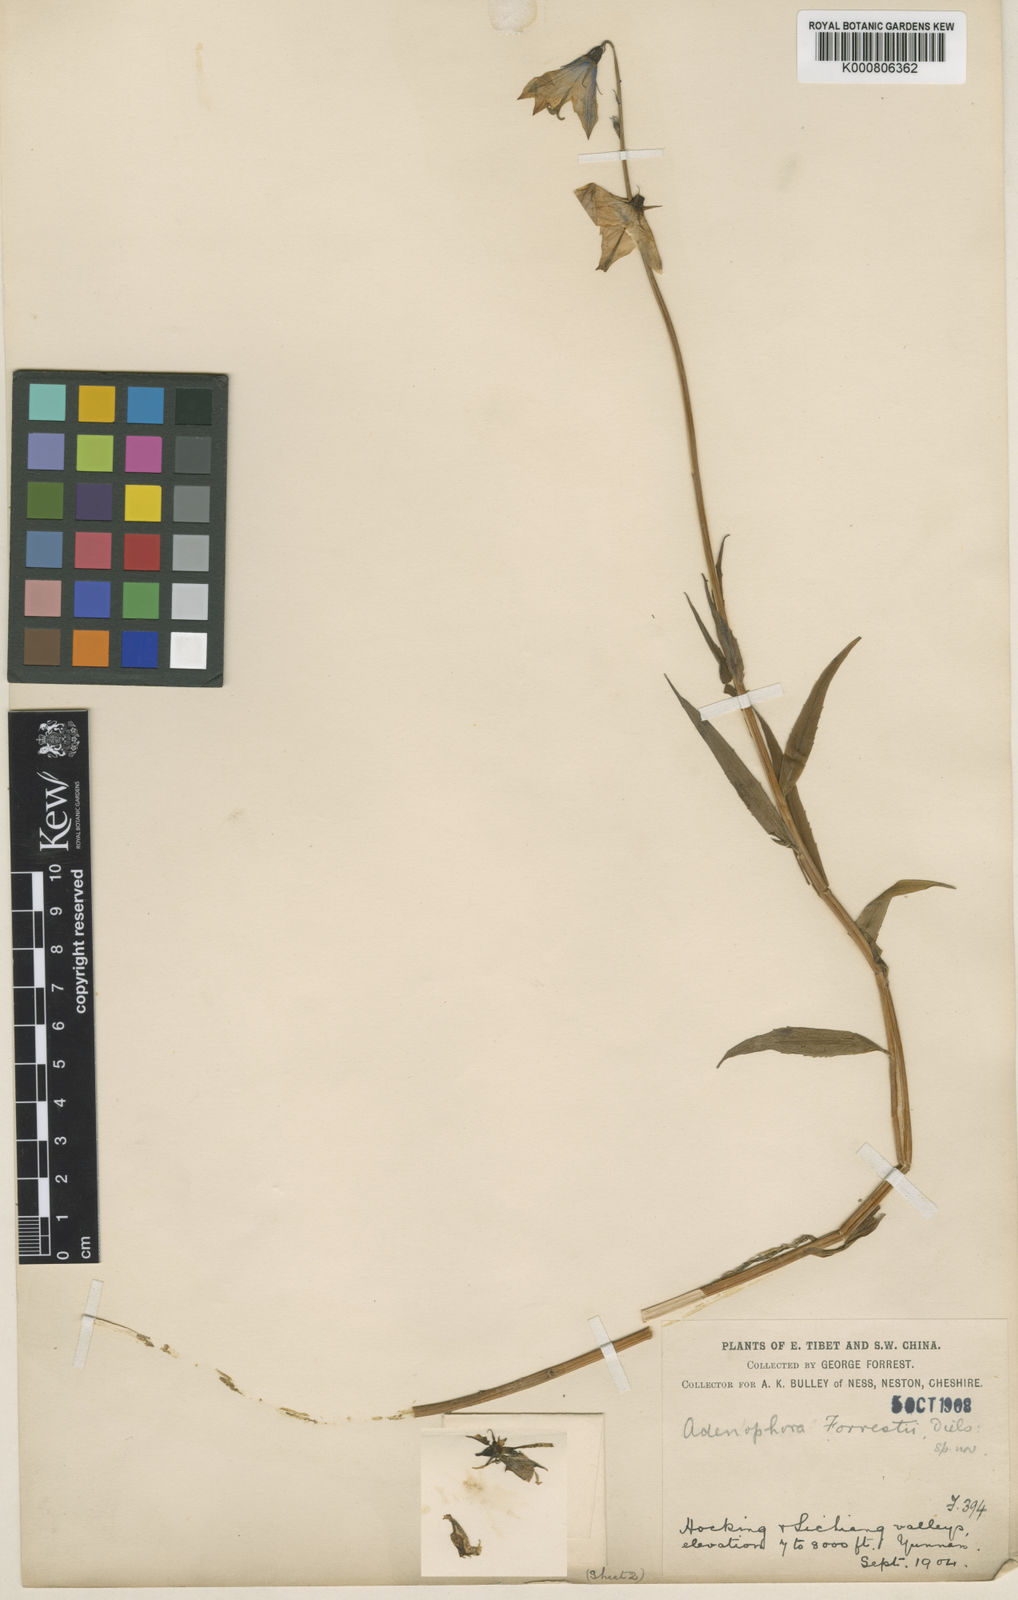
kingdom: Plantae
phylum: Tracheophyta
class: Magnoliopsida
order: Asterales
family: Campanulaceae
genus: Adenophora
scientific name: Adenophora jasionifolia
